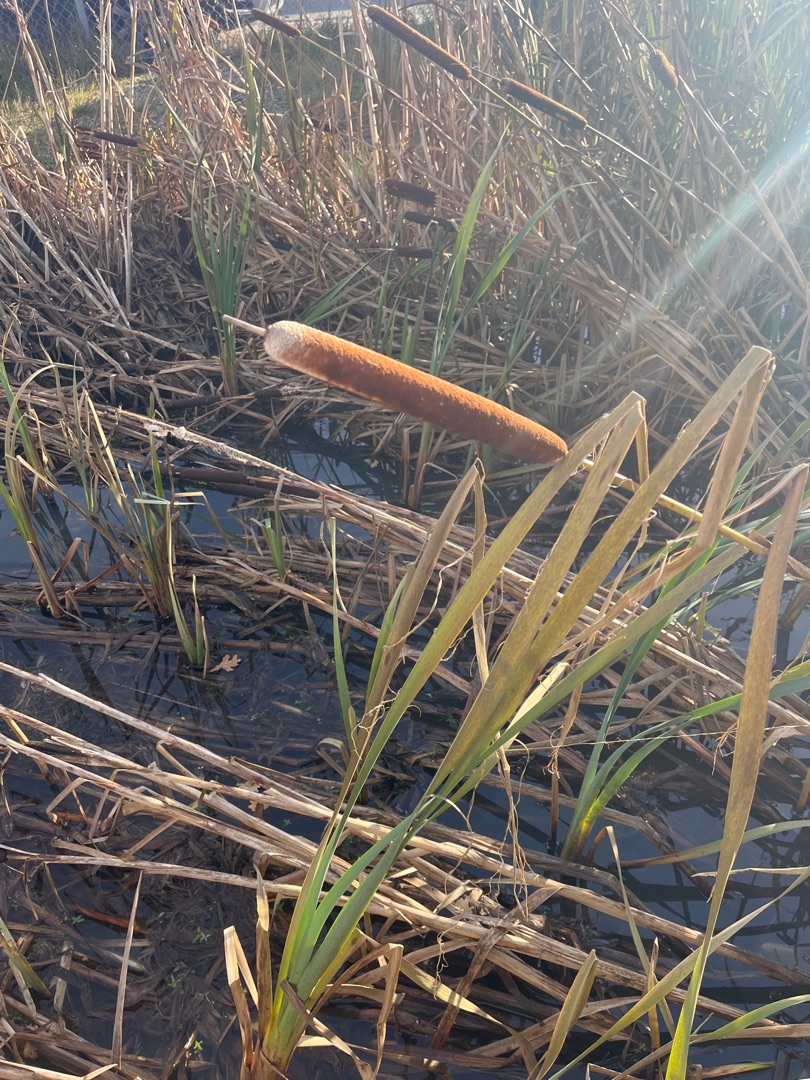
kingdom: Plantae
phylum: Tracheophyta
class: Liliopsida
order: Poales
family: Typhaceae
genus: Typha
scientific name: Typha latifolia
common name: Bredbladet dunhammer
